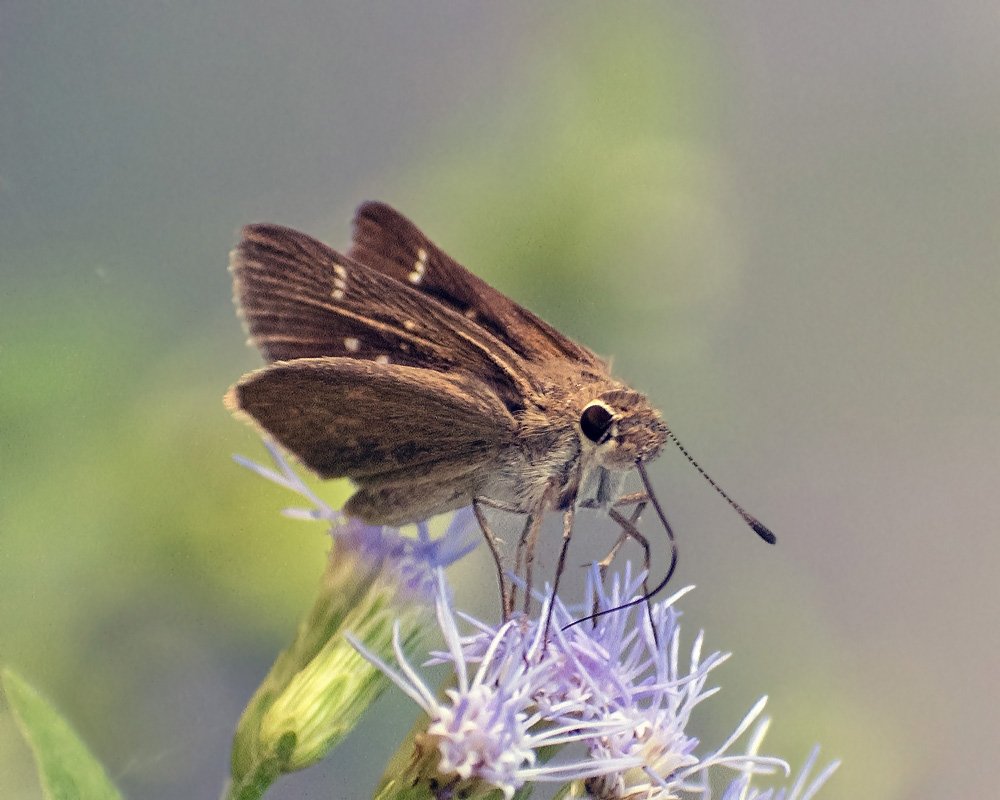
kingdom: Animalia
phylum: Arthropoda
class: Insecta
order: Lepidoptera
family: Hesperiidae
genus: Lerodea
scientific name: Lerodea eufala
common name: Eufala Skipper
